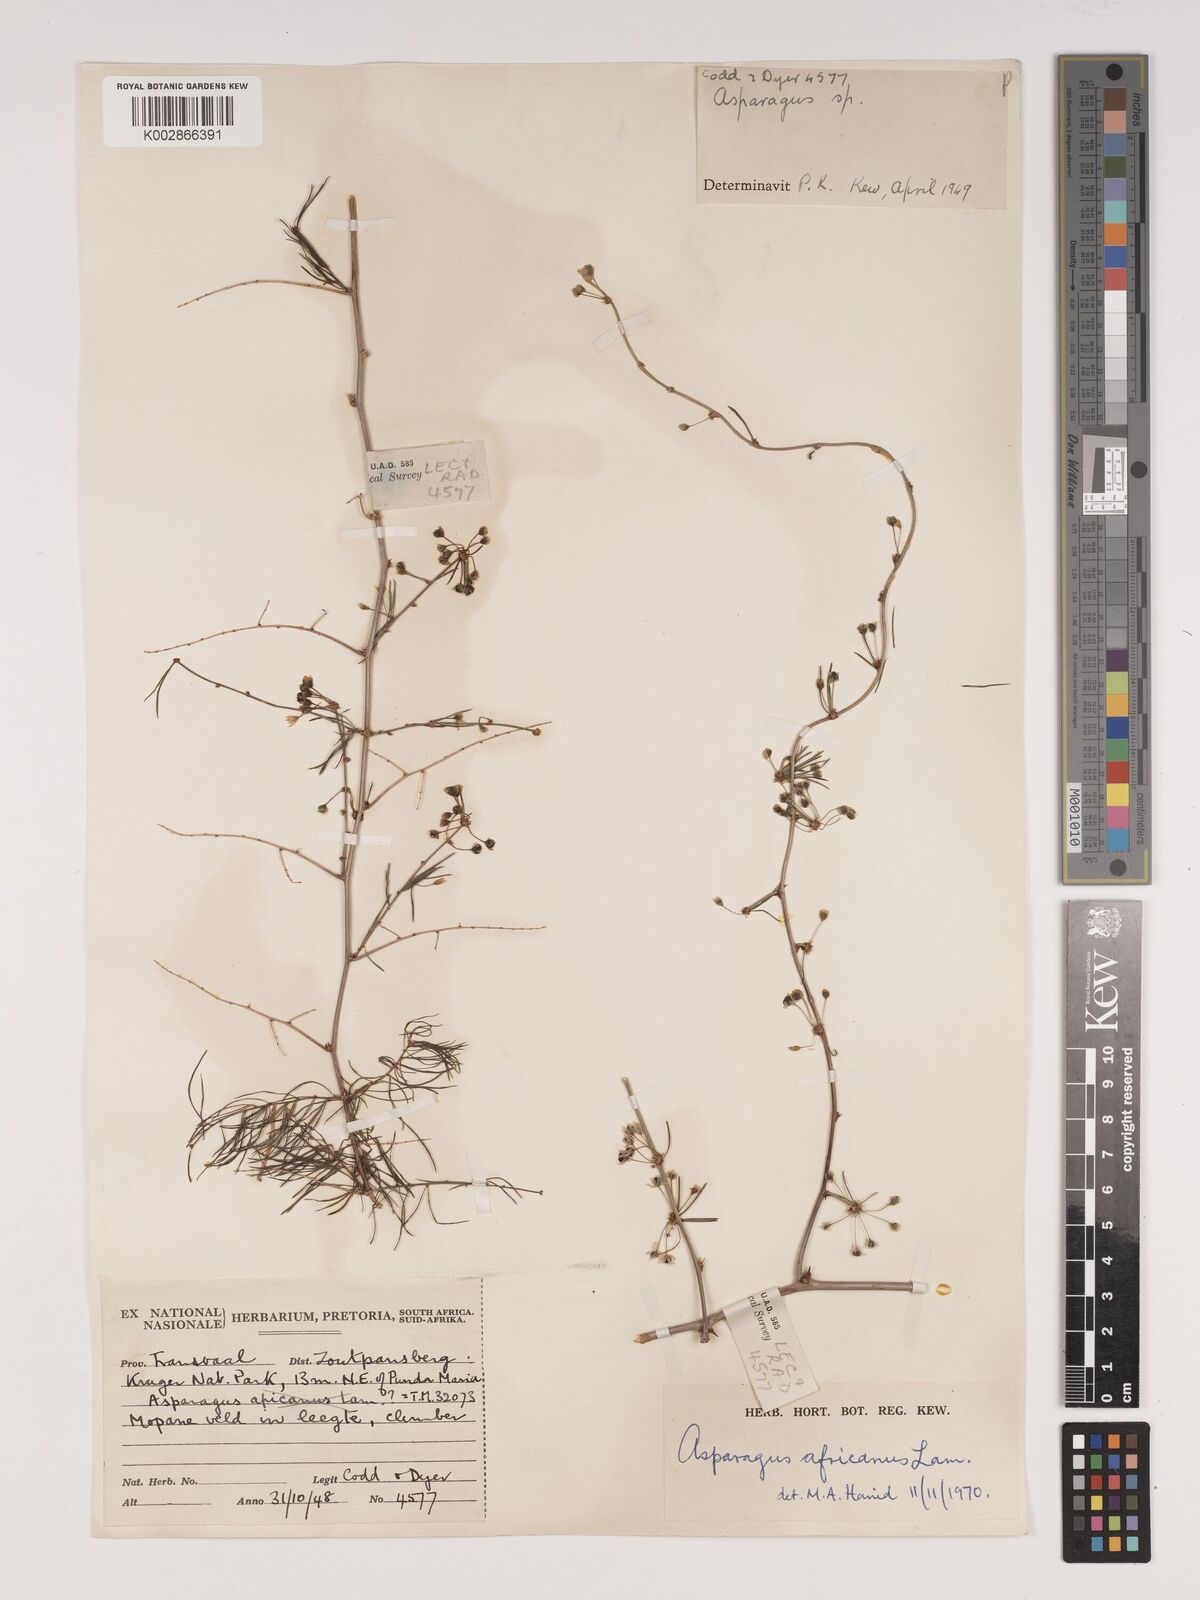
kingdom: Plantae
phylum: Tracheophyta
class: Liliopsida
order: Asparagales
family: Asparagaceae
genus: Asparagus
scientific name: Asparagus africanus
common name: Asparagus-fern
